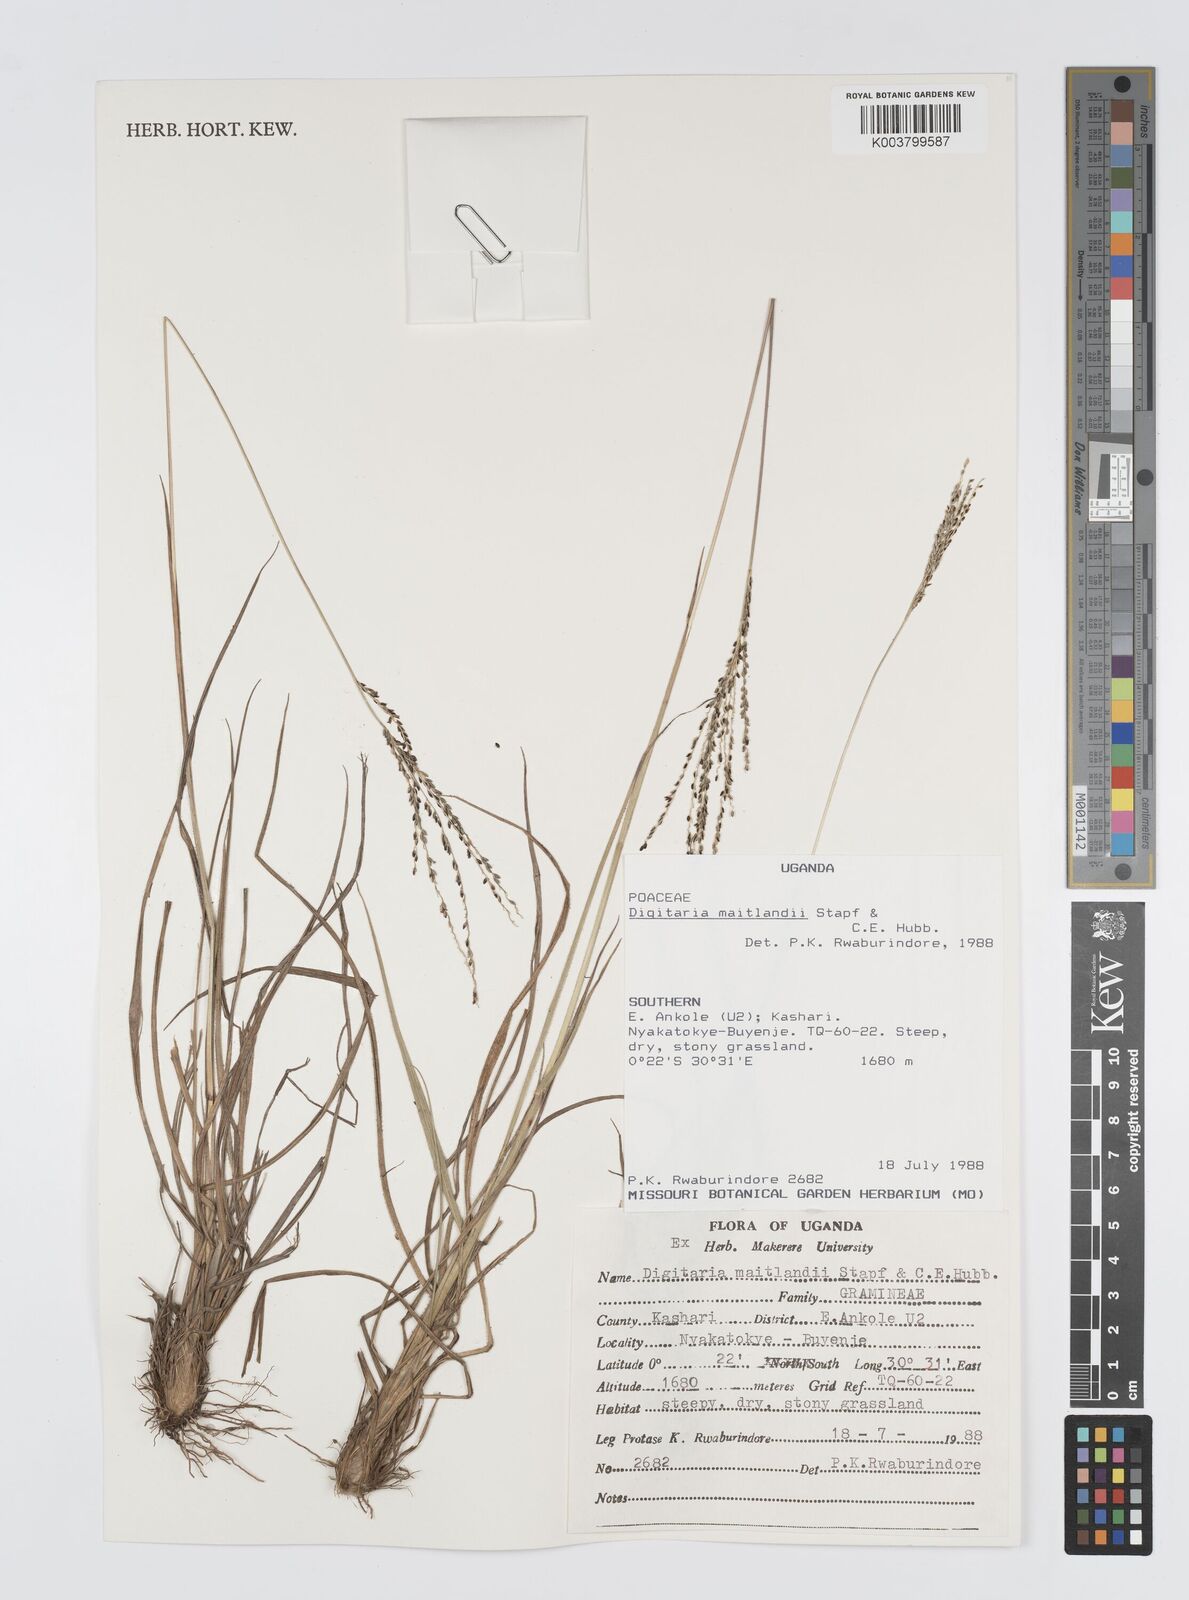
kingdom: Plantae
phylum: Tracheophyta
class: Liliopsida
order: Poales
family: Poaceae
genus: Digitaria
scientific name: Digitaria maitlandii
